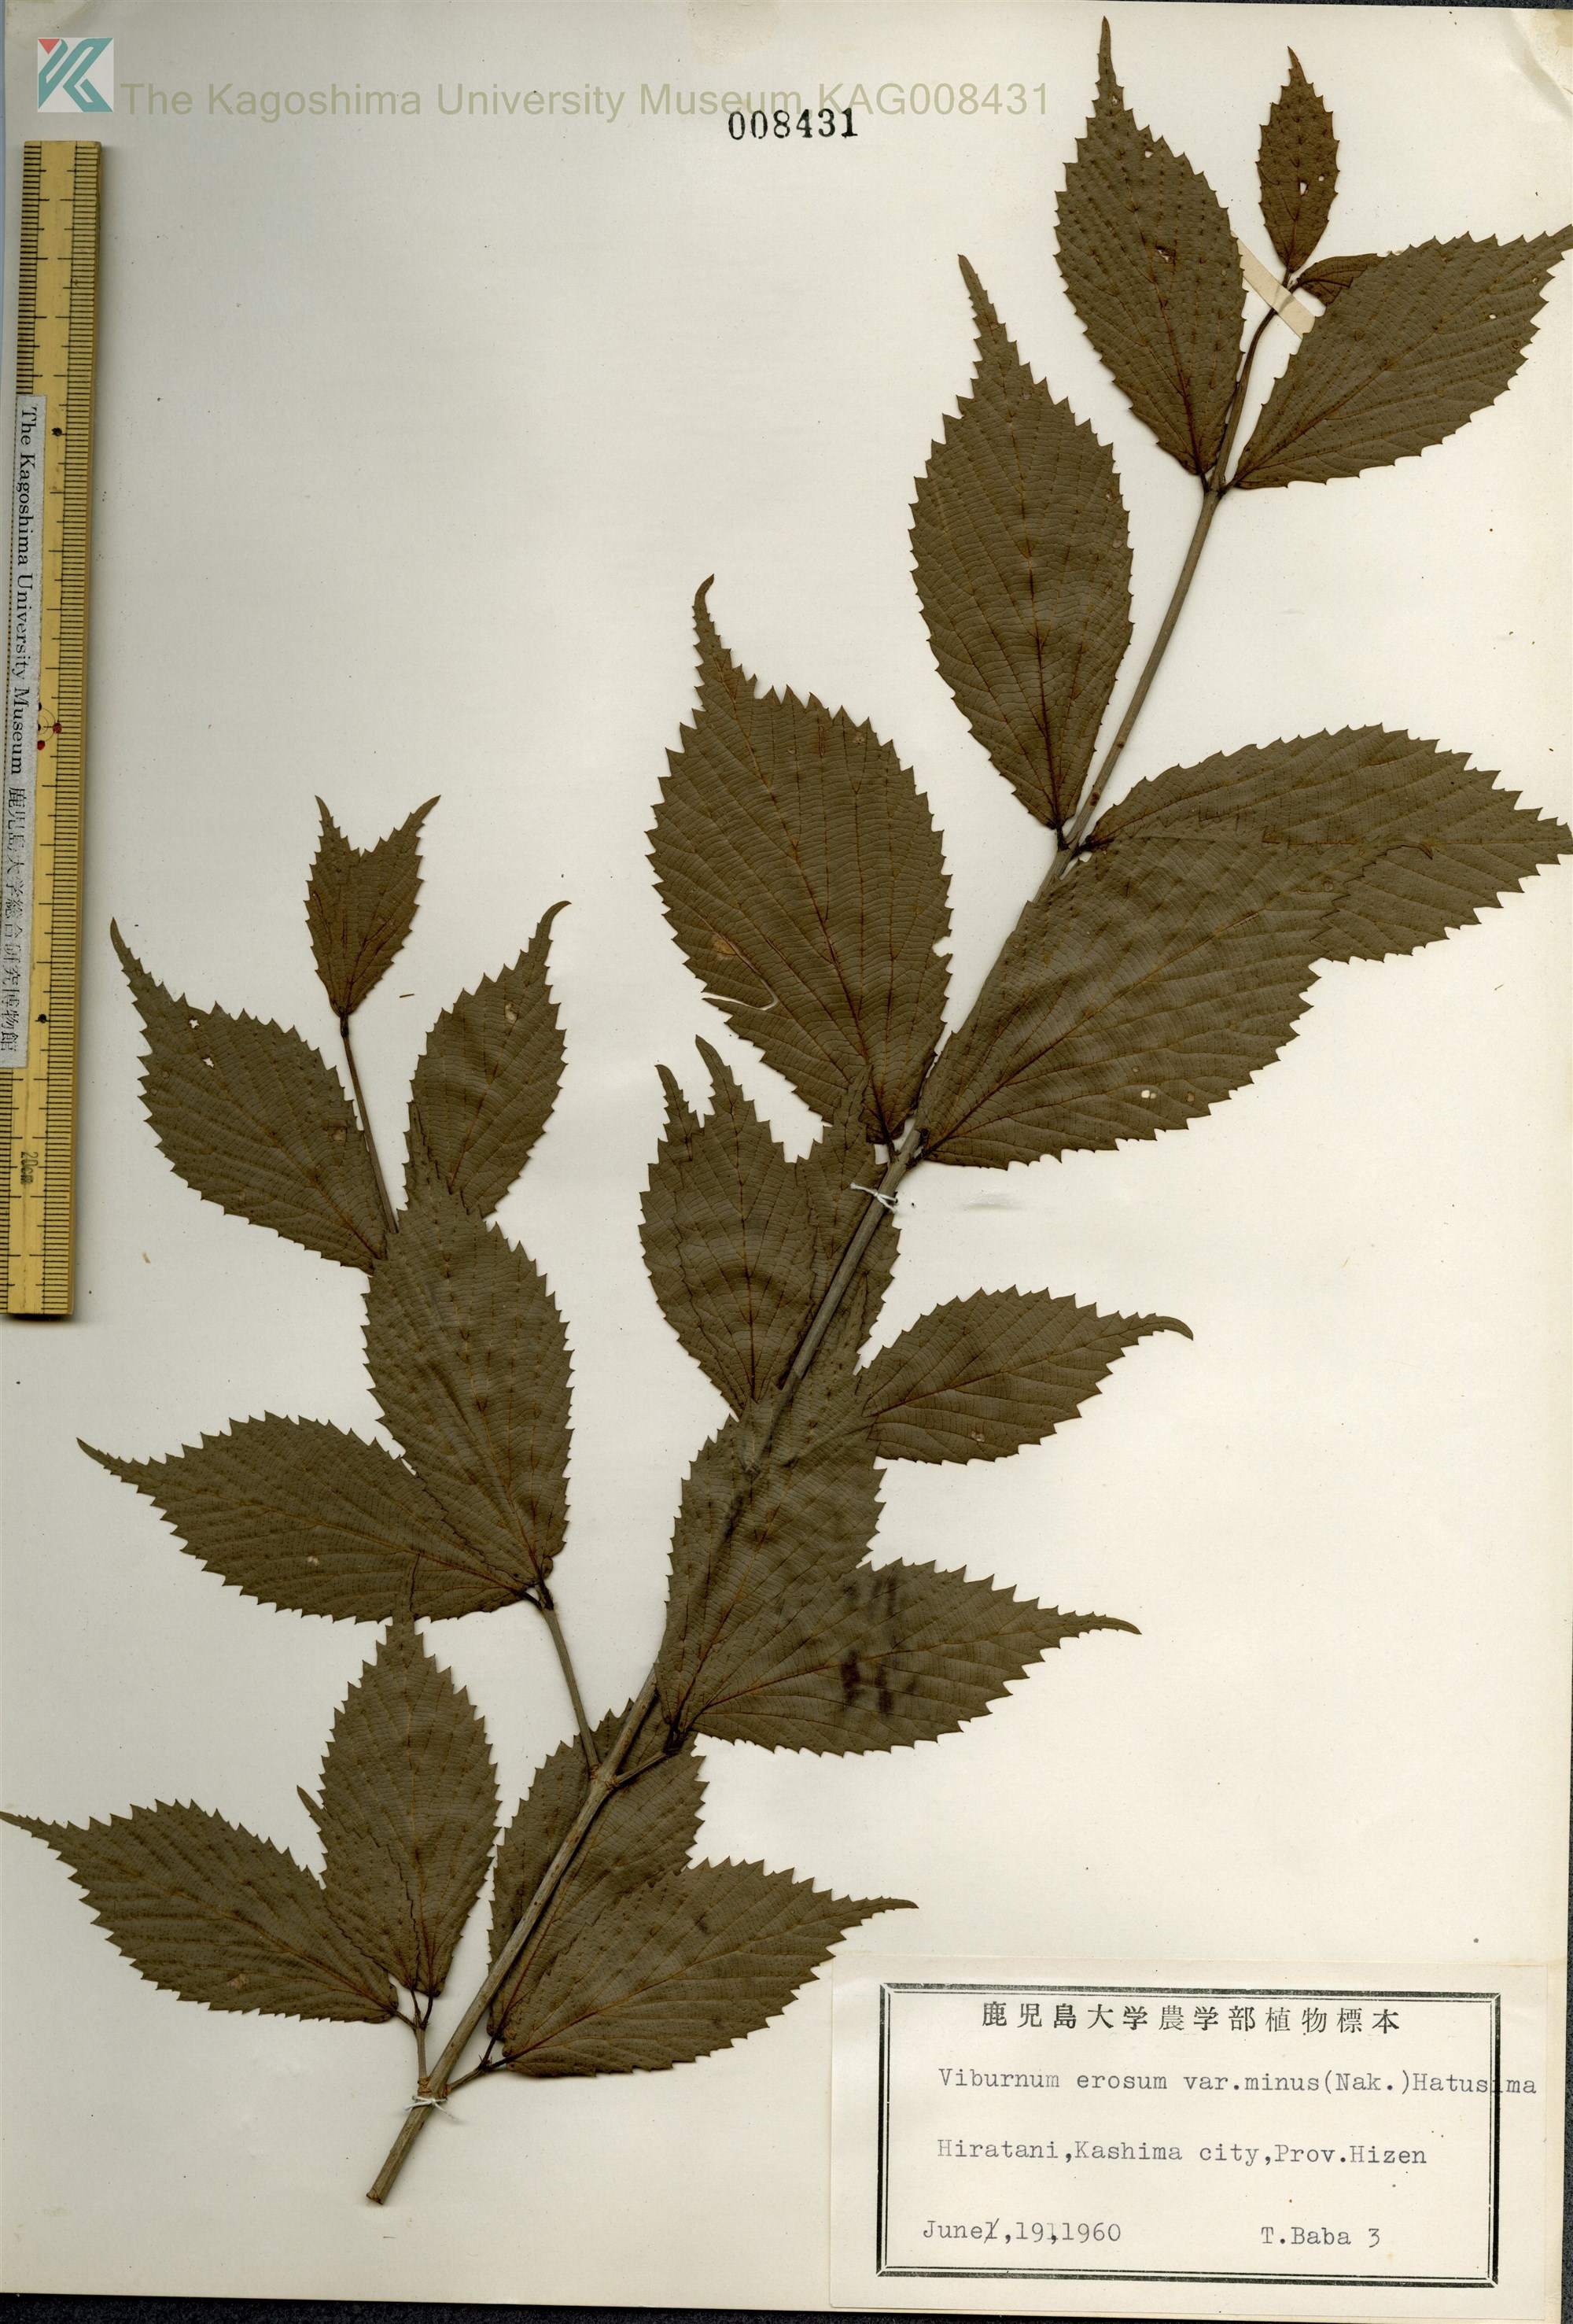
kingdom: Plantae
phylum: Tracheophyta
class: Magnoliopsida
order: Dipsacales
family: Viburnaceae
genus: Viburnum
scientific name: Viburnum erosum
